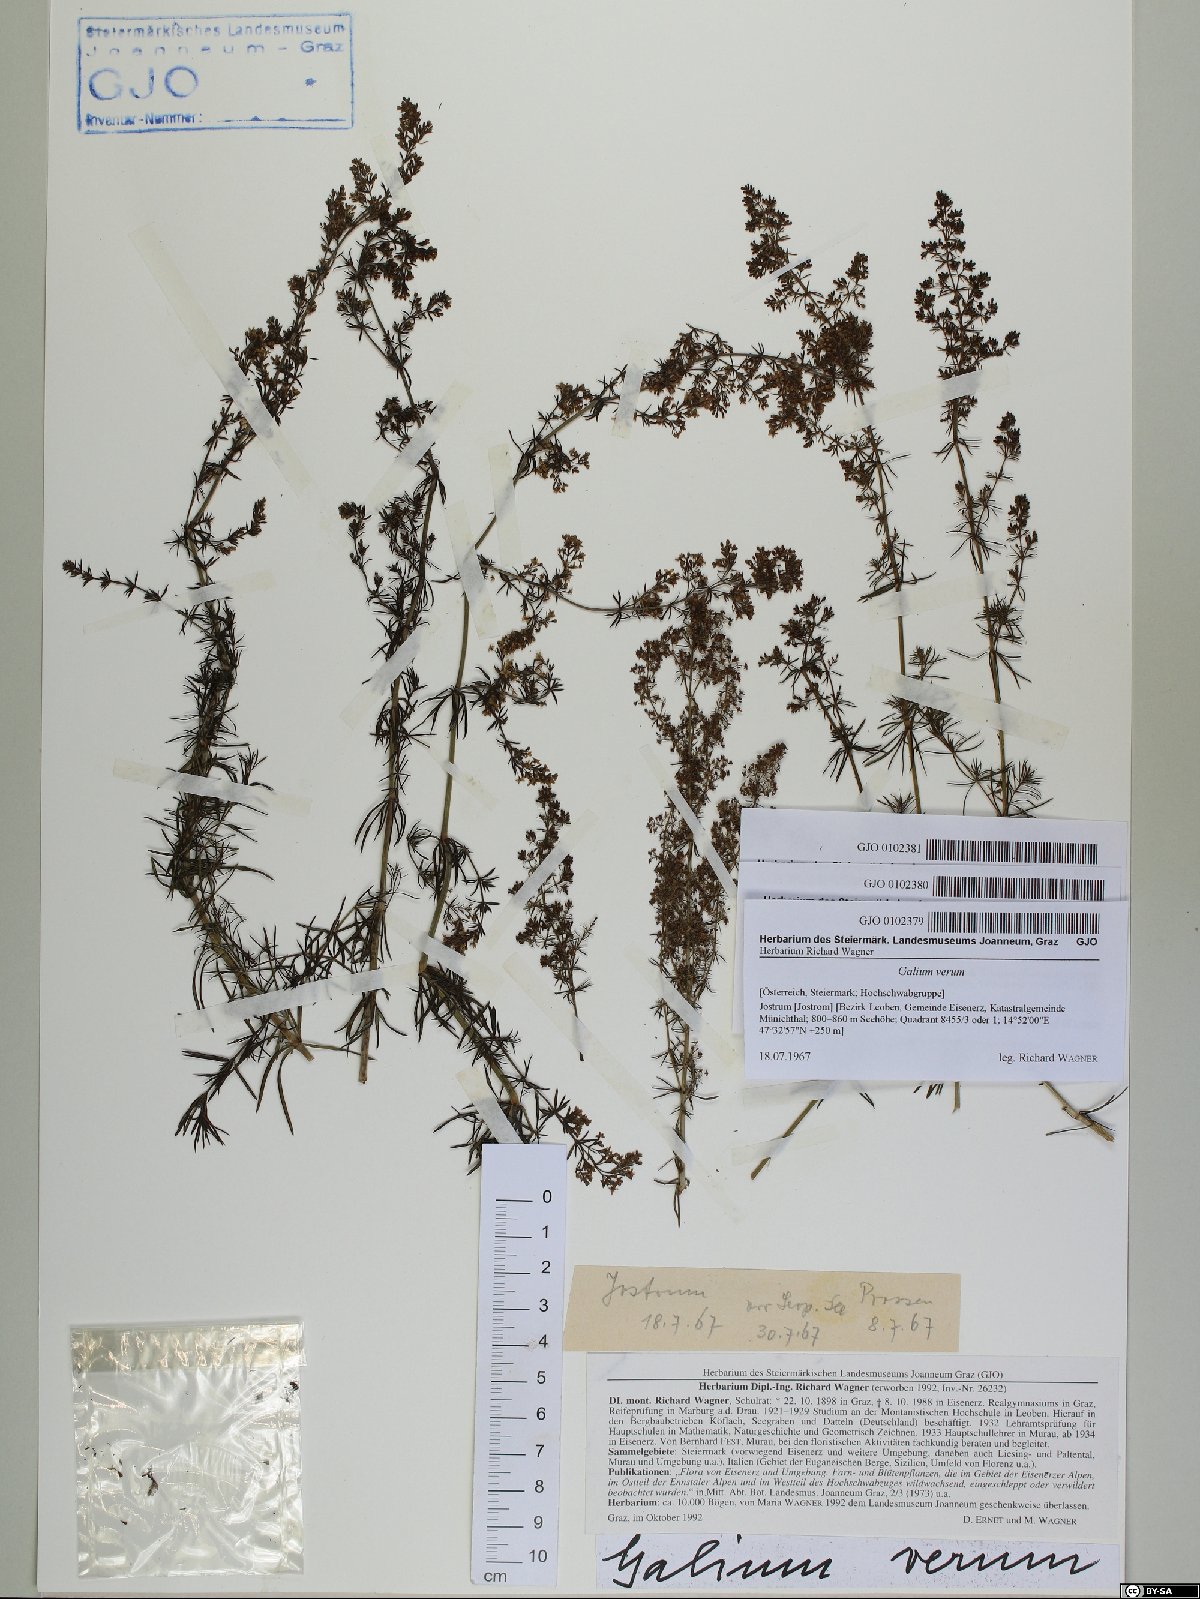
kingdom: Plantae
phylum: Tracheophyta
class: Magnoliopsida
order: Gentianales
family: Rubiaceae
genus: Galium
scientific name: Galium verum
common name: Lady's bedstraw
